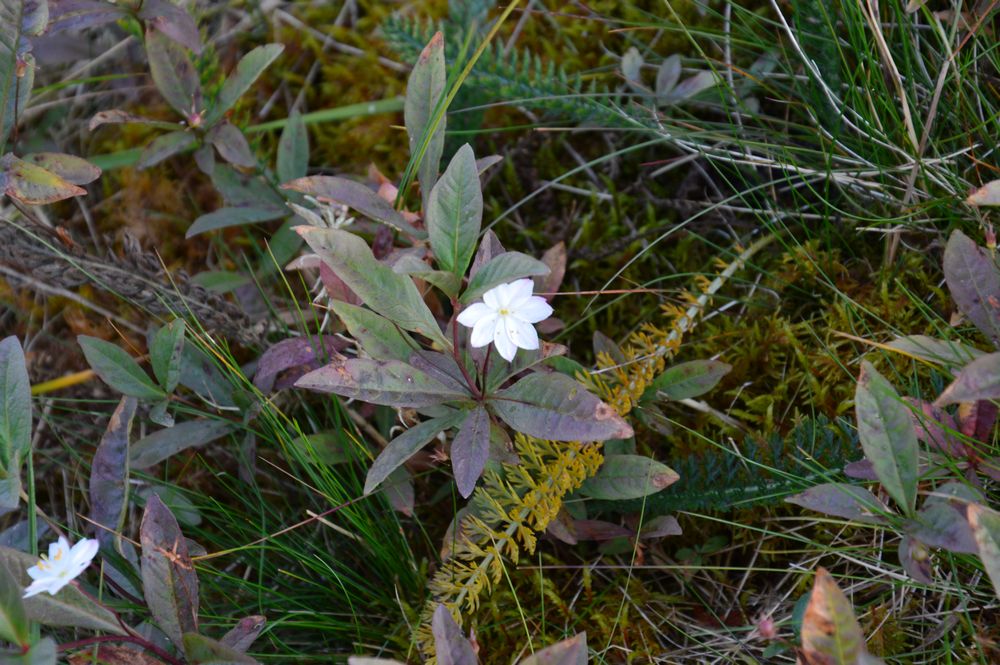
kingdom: Plantae
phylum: Tracheophyta
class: Magnoliopsida
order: Ericales
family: Primulaceae
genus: Lysimachia
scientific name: Lysimachia
